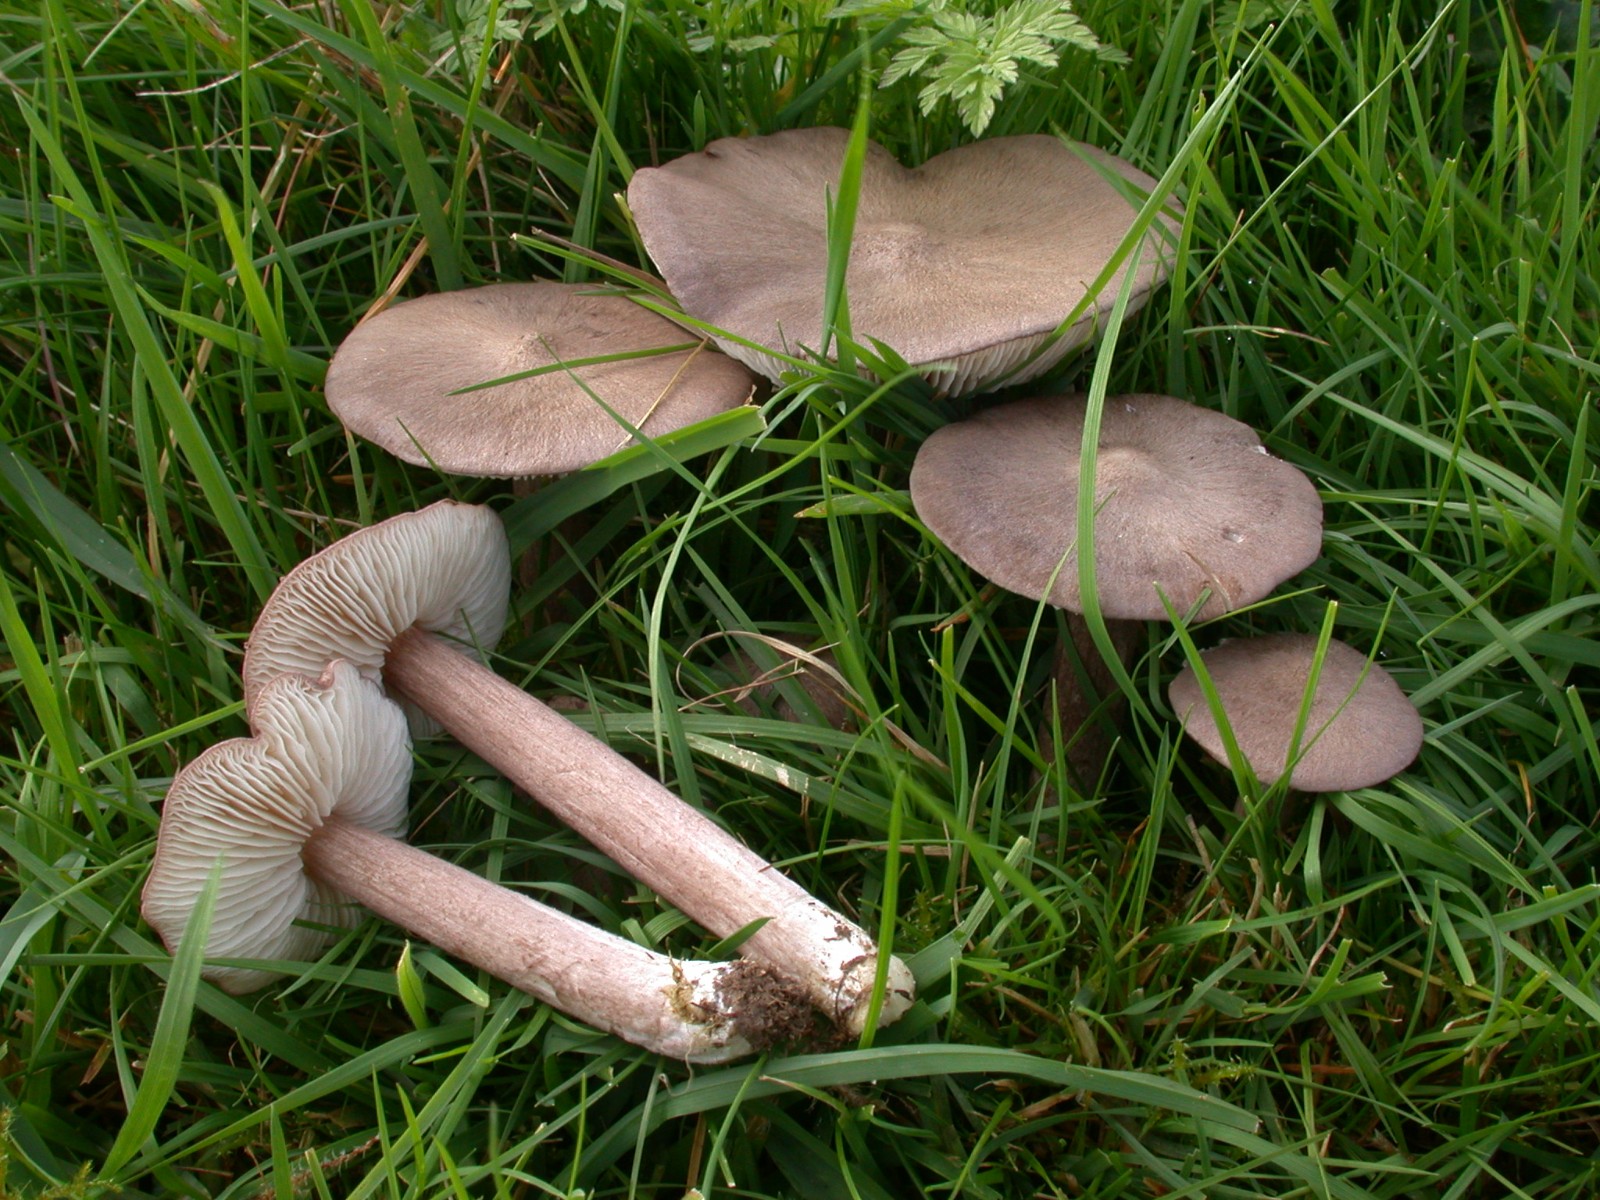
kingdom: Fungi
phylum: Basidiomycota
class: Agaricomycetes
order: Agaricales
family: Entolomataceae
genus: Entoloma
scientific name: Entoloma porphyrophaeum
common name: porfyrbrun rødblad
